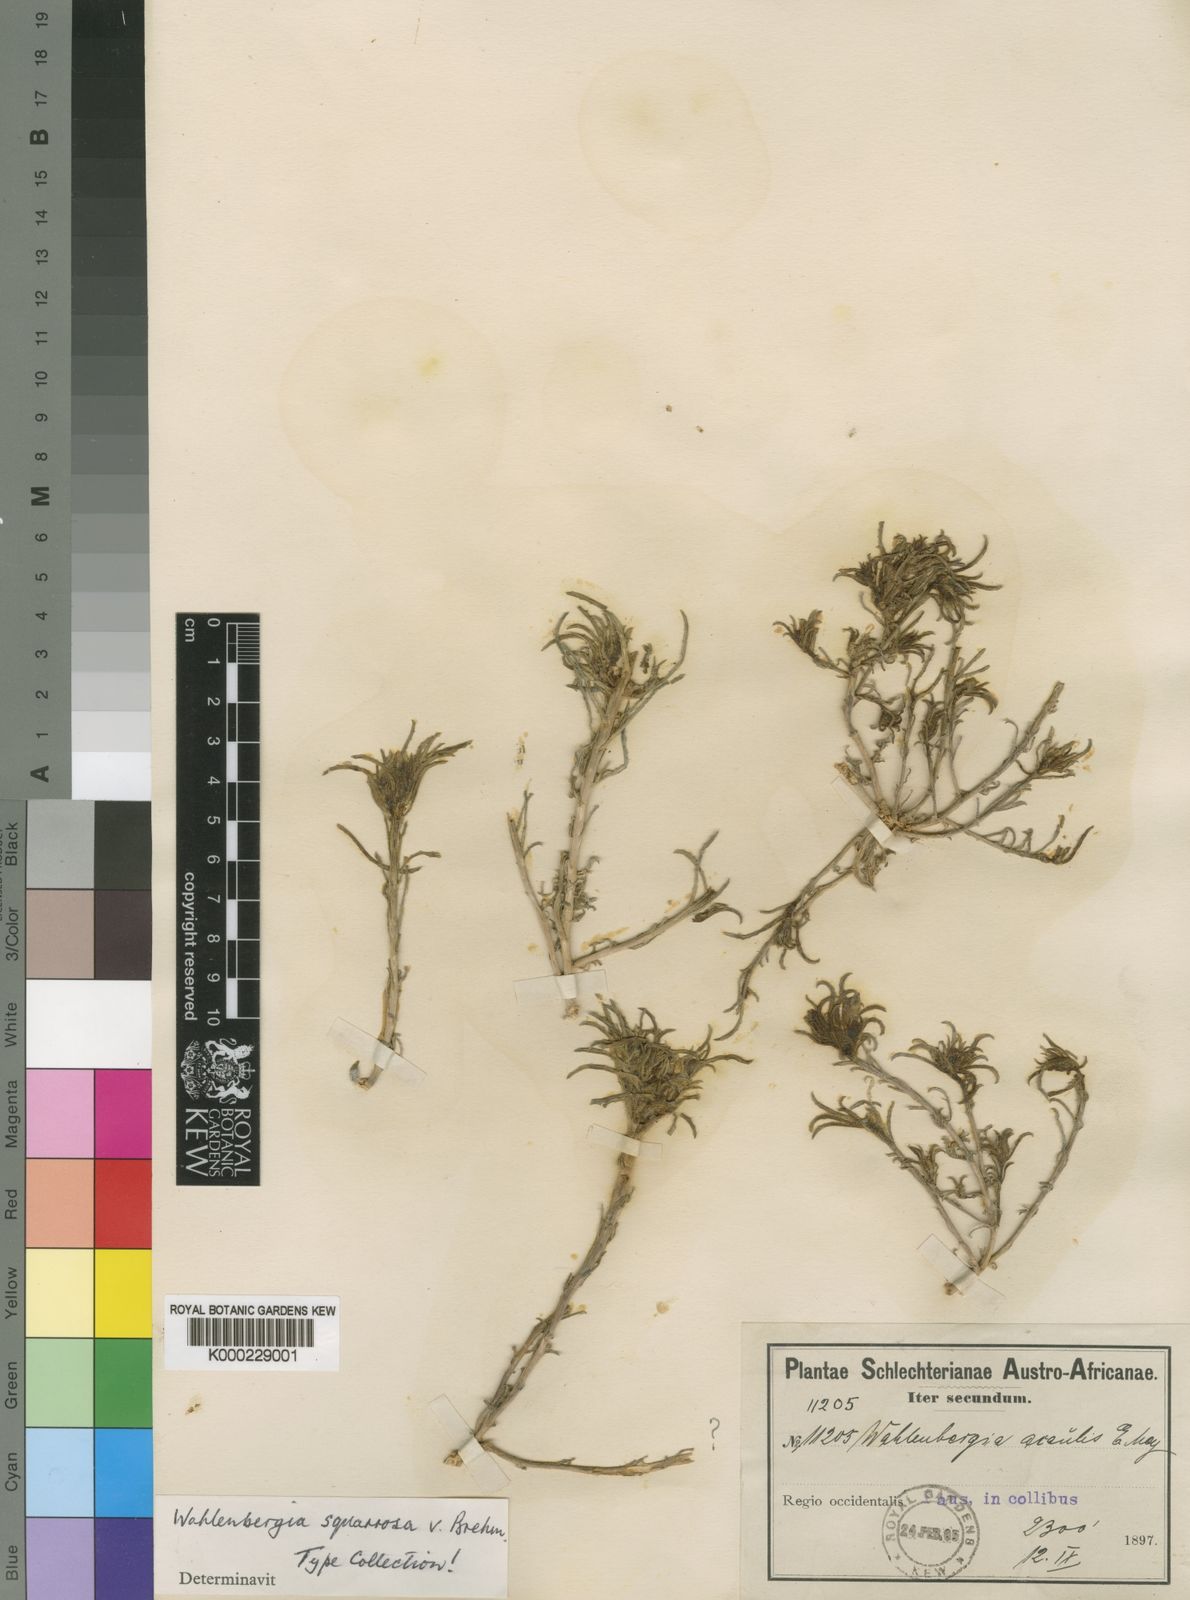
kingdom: Plantae
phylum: Tracheophyta
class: Magnoliopsida
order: Asterales
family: Campanulaceae
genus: Wahlenbergia
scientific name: Wahlenbergia squarrosa
